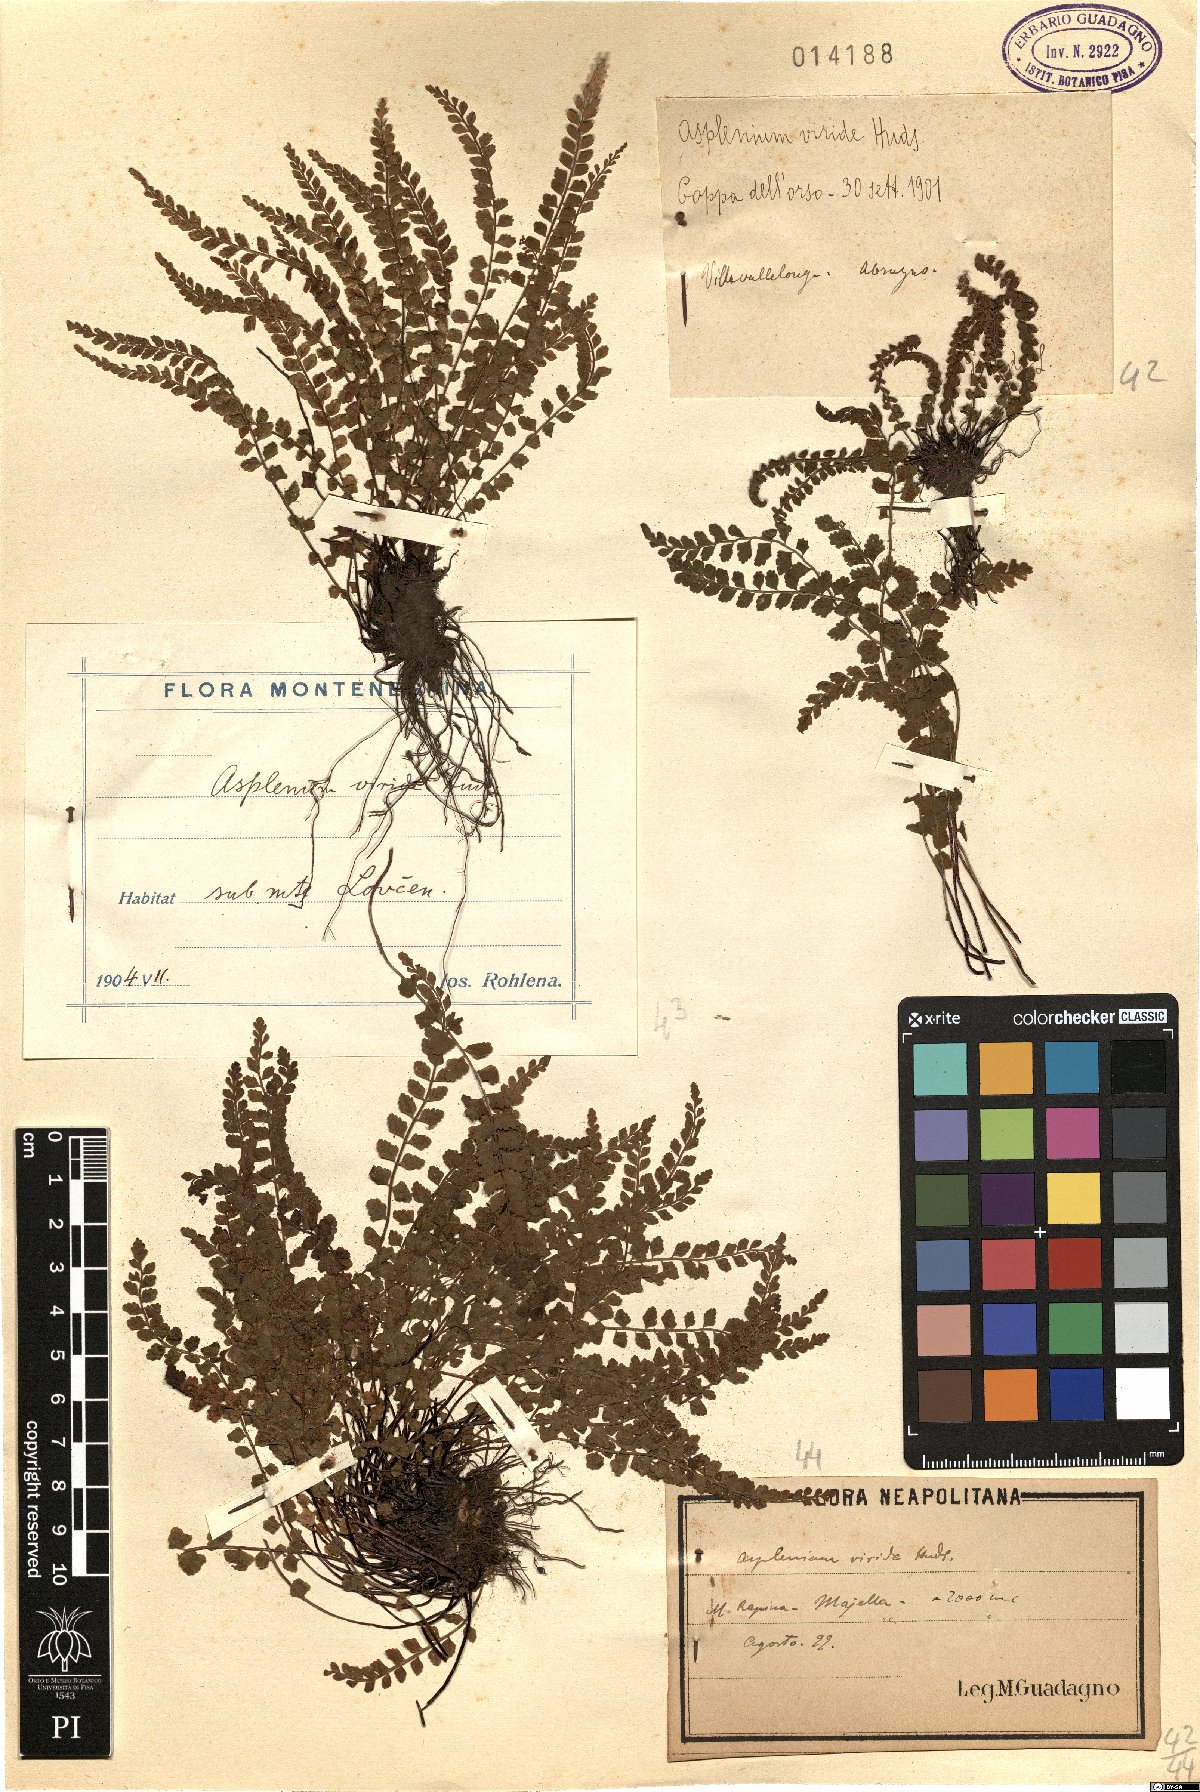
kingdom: Plantae
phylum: Tracheophyta
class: Polypodiopsida
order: Polypodiales
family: Aspleniaceae
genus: Asplenium
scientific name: Asplenium viride
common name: Green spleenwort
